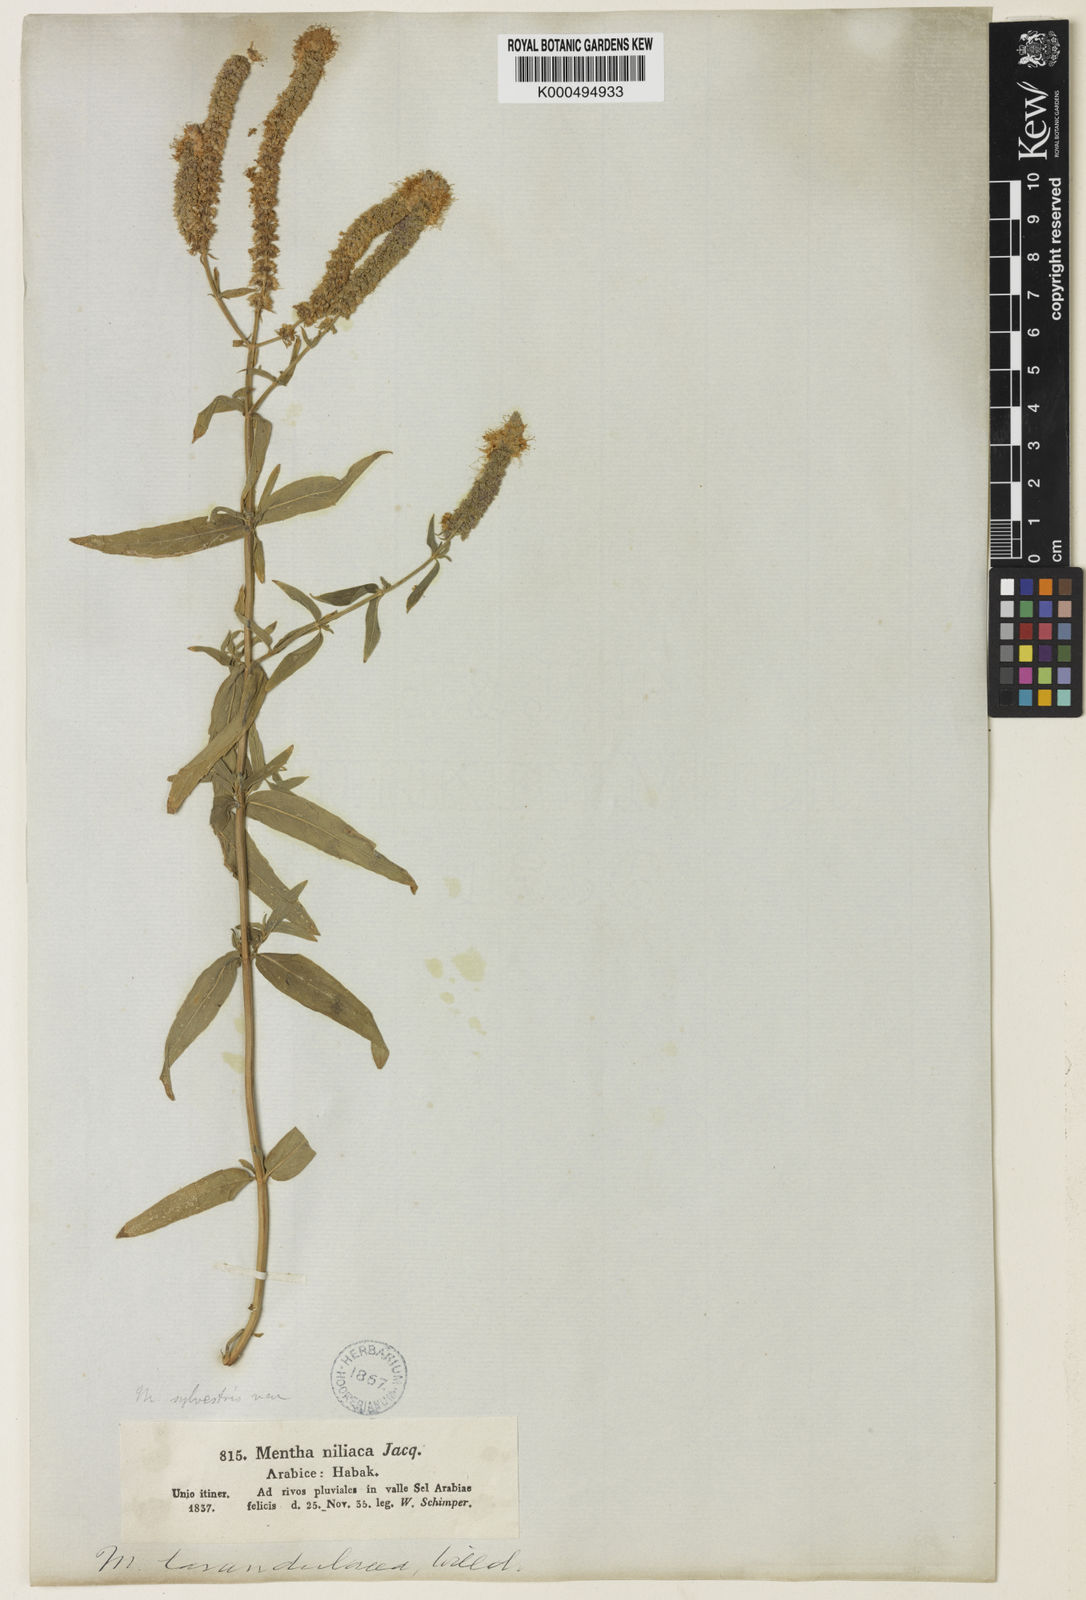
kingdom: Plantae
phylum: Tracheophyta
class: Magnoliopsida
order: Lamiales
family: Lamiaceae
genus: Mentha
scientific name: Mentha longifolia
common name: Horse mint
